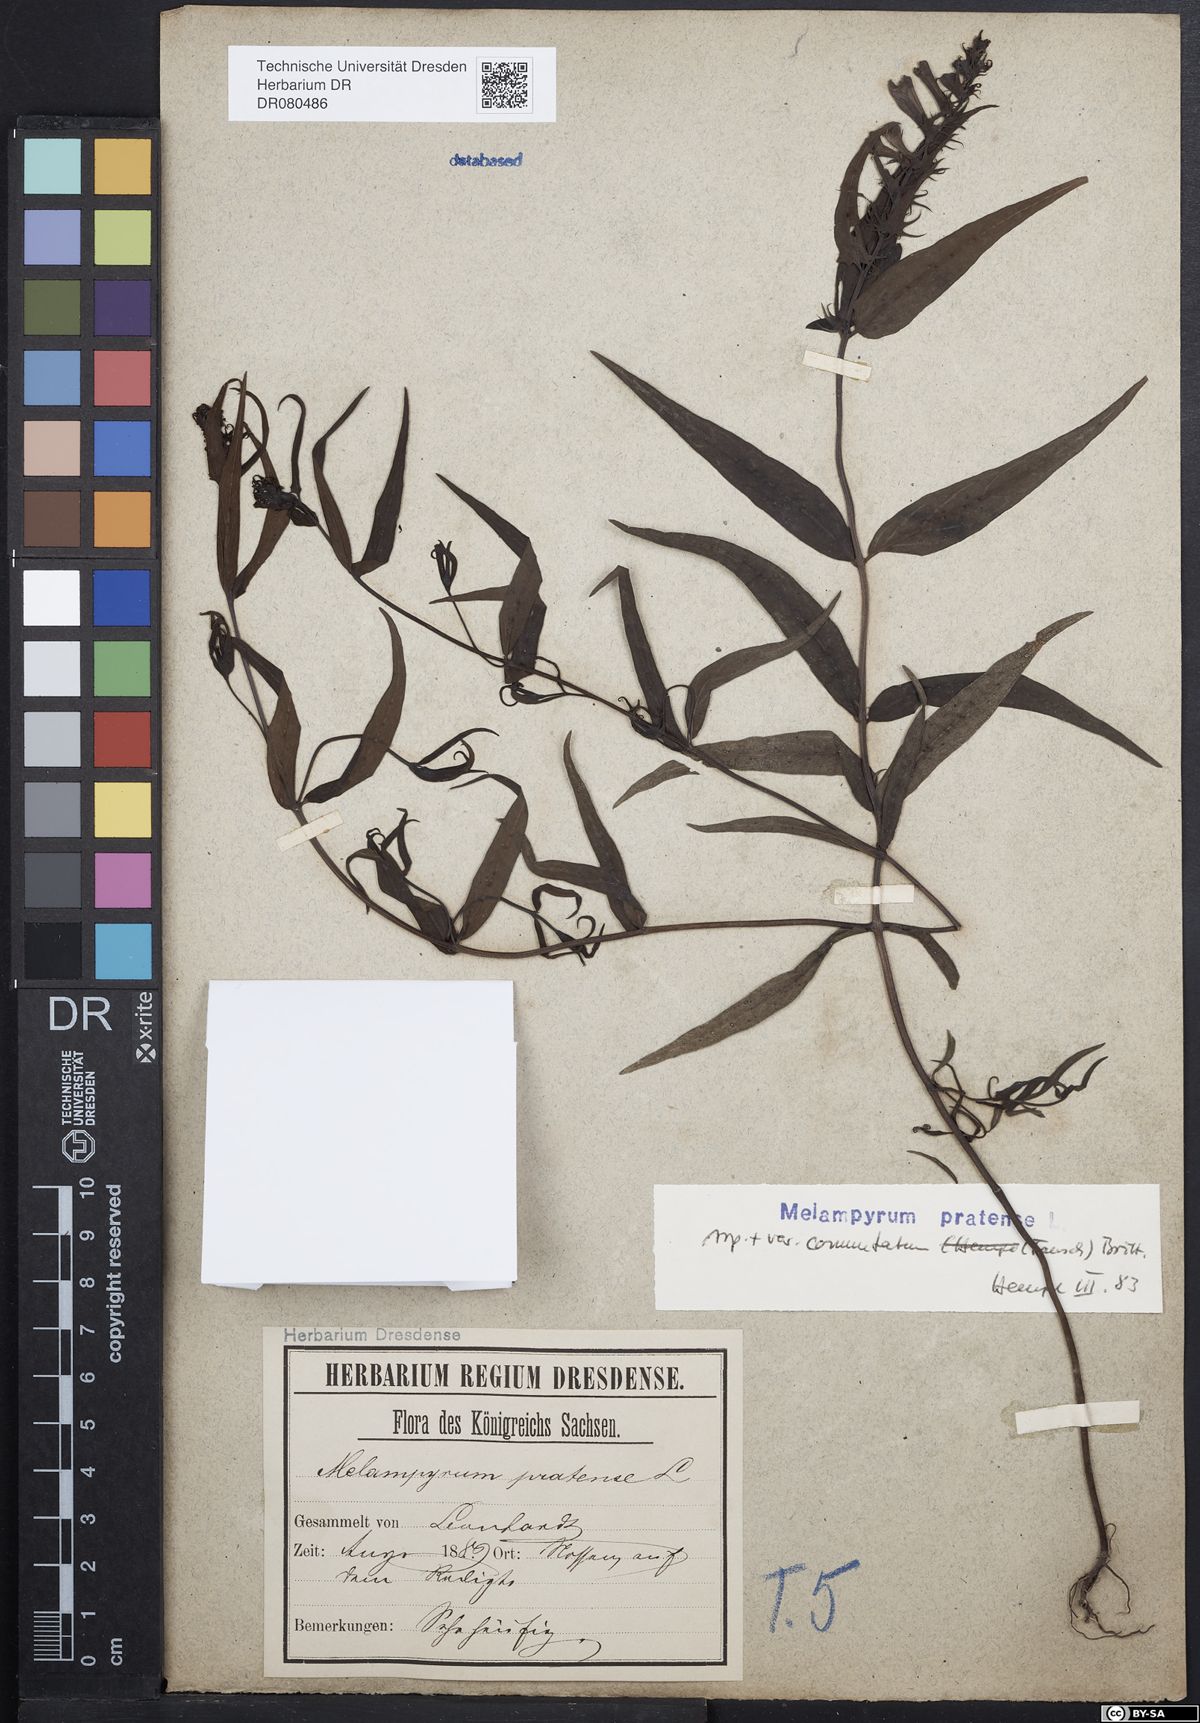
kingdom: Plantae
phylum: Tracheophyta
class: Magnoliopsida
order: Lamiales
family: Orobanchaceae
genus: Melampyrum
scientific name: Melampyrum pratense
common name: Common cow-wheat
